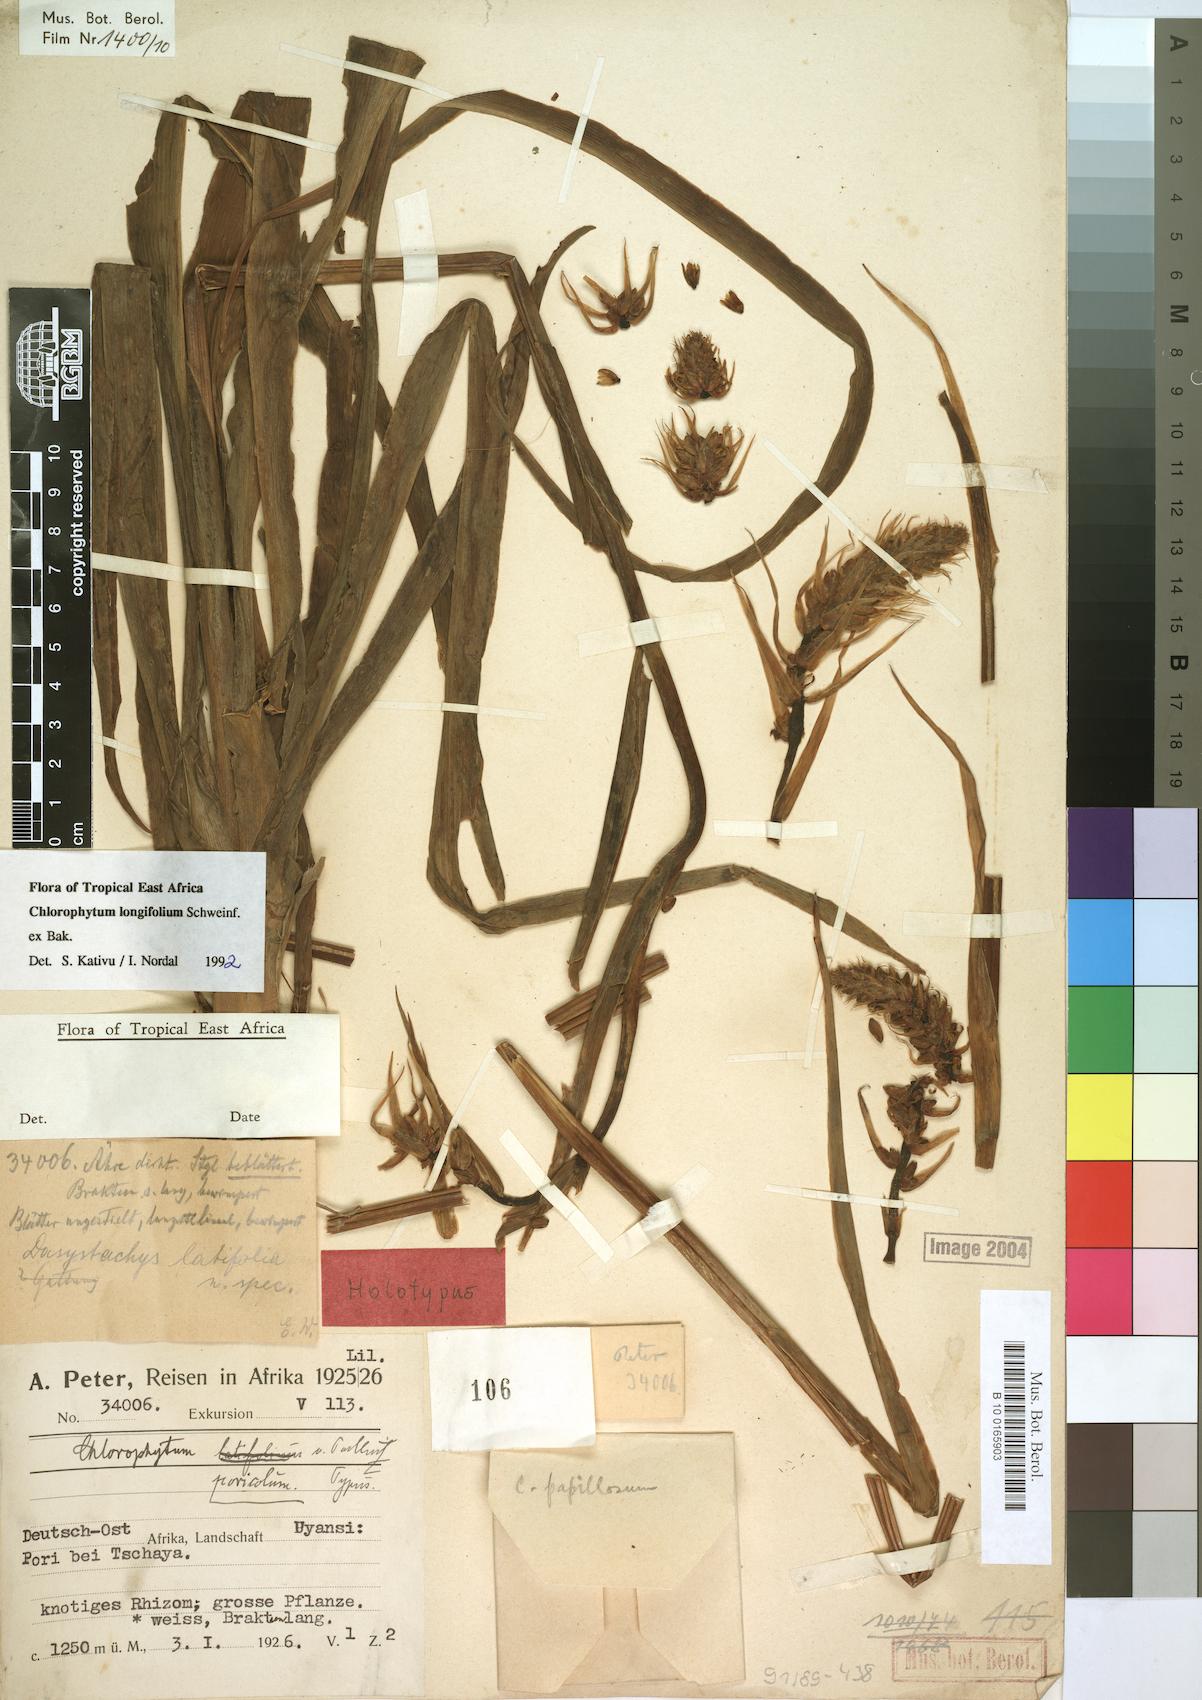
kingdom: Plantae
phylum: Tracheophyta
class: Liliopsida
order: Asparagales
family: Asparagaceae
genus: Chlorophytum
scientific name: Chlorophytum longifolium
